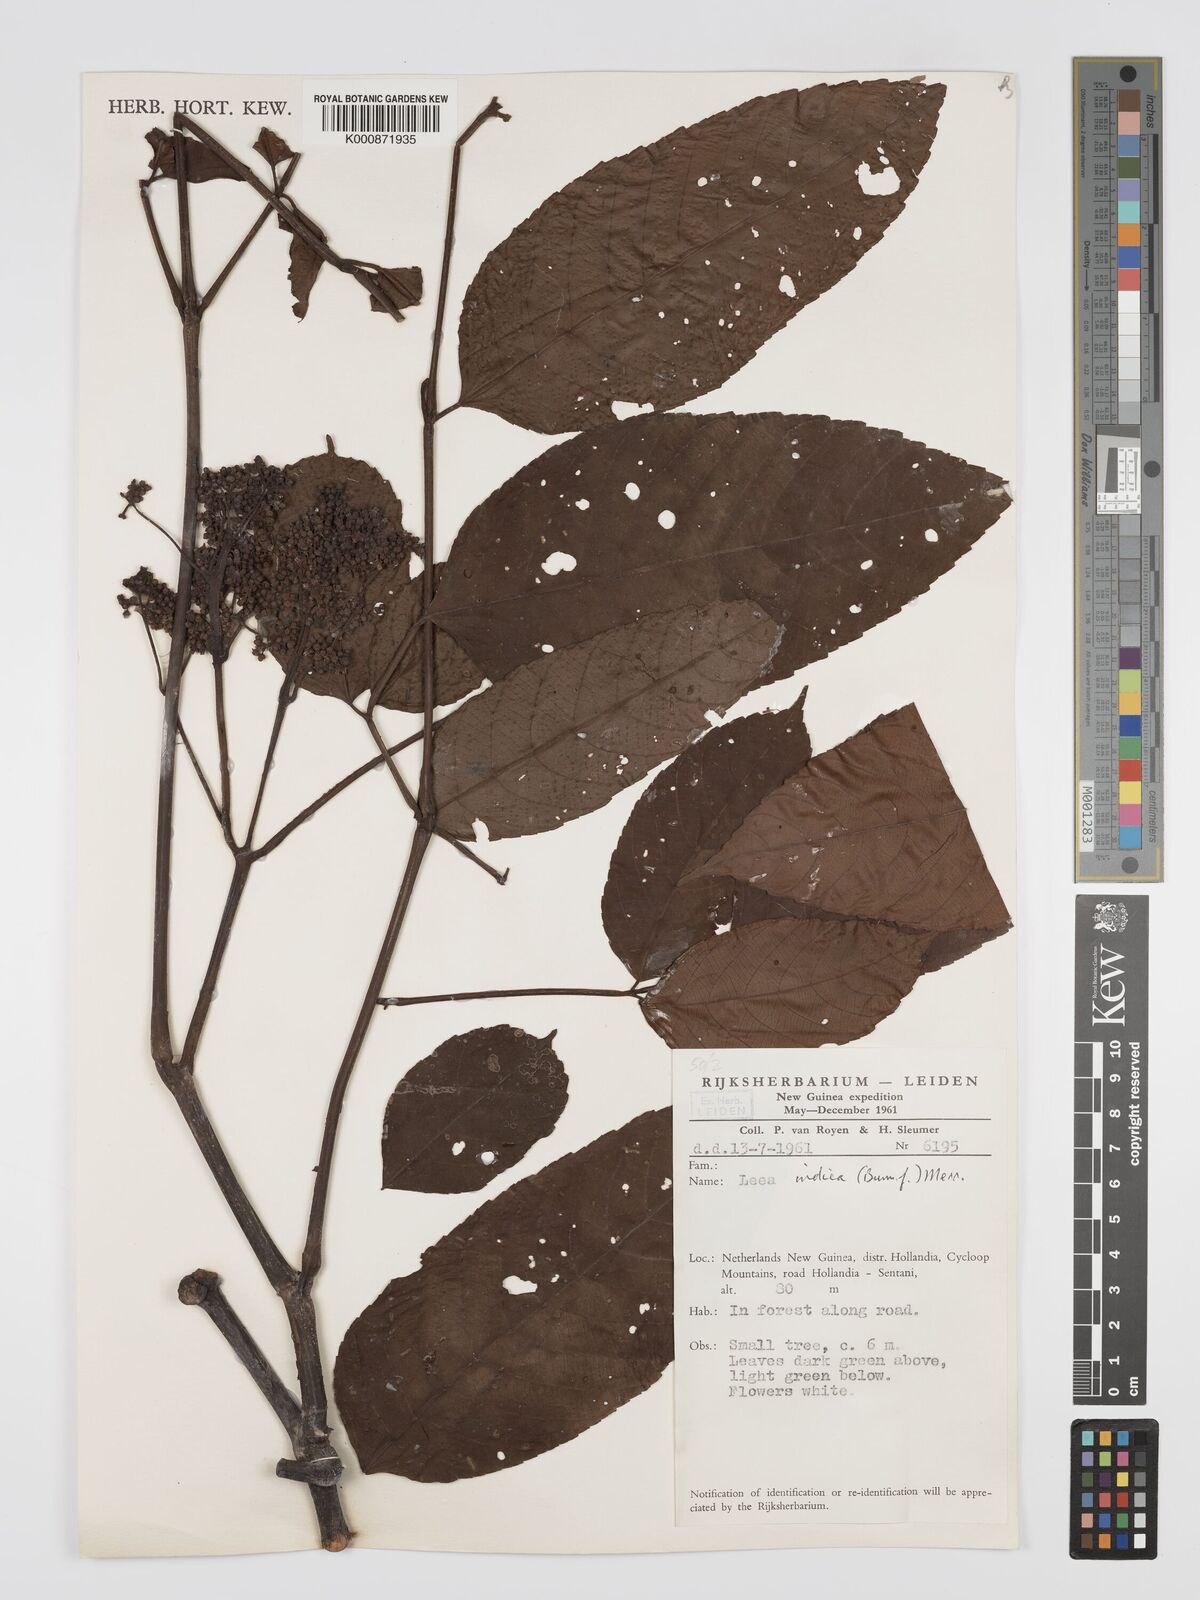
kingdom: Plantae
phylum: Tracheophyta
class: Magnoliopsida
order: Vitales
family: Vitaceae
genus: Leea
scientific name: Leea indica
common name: Bandicoot-berry
